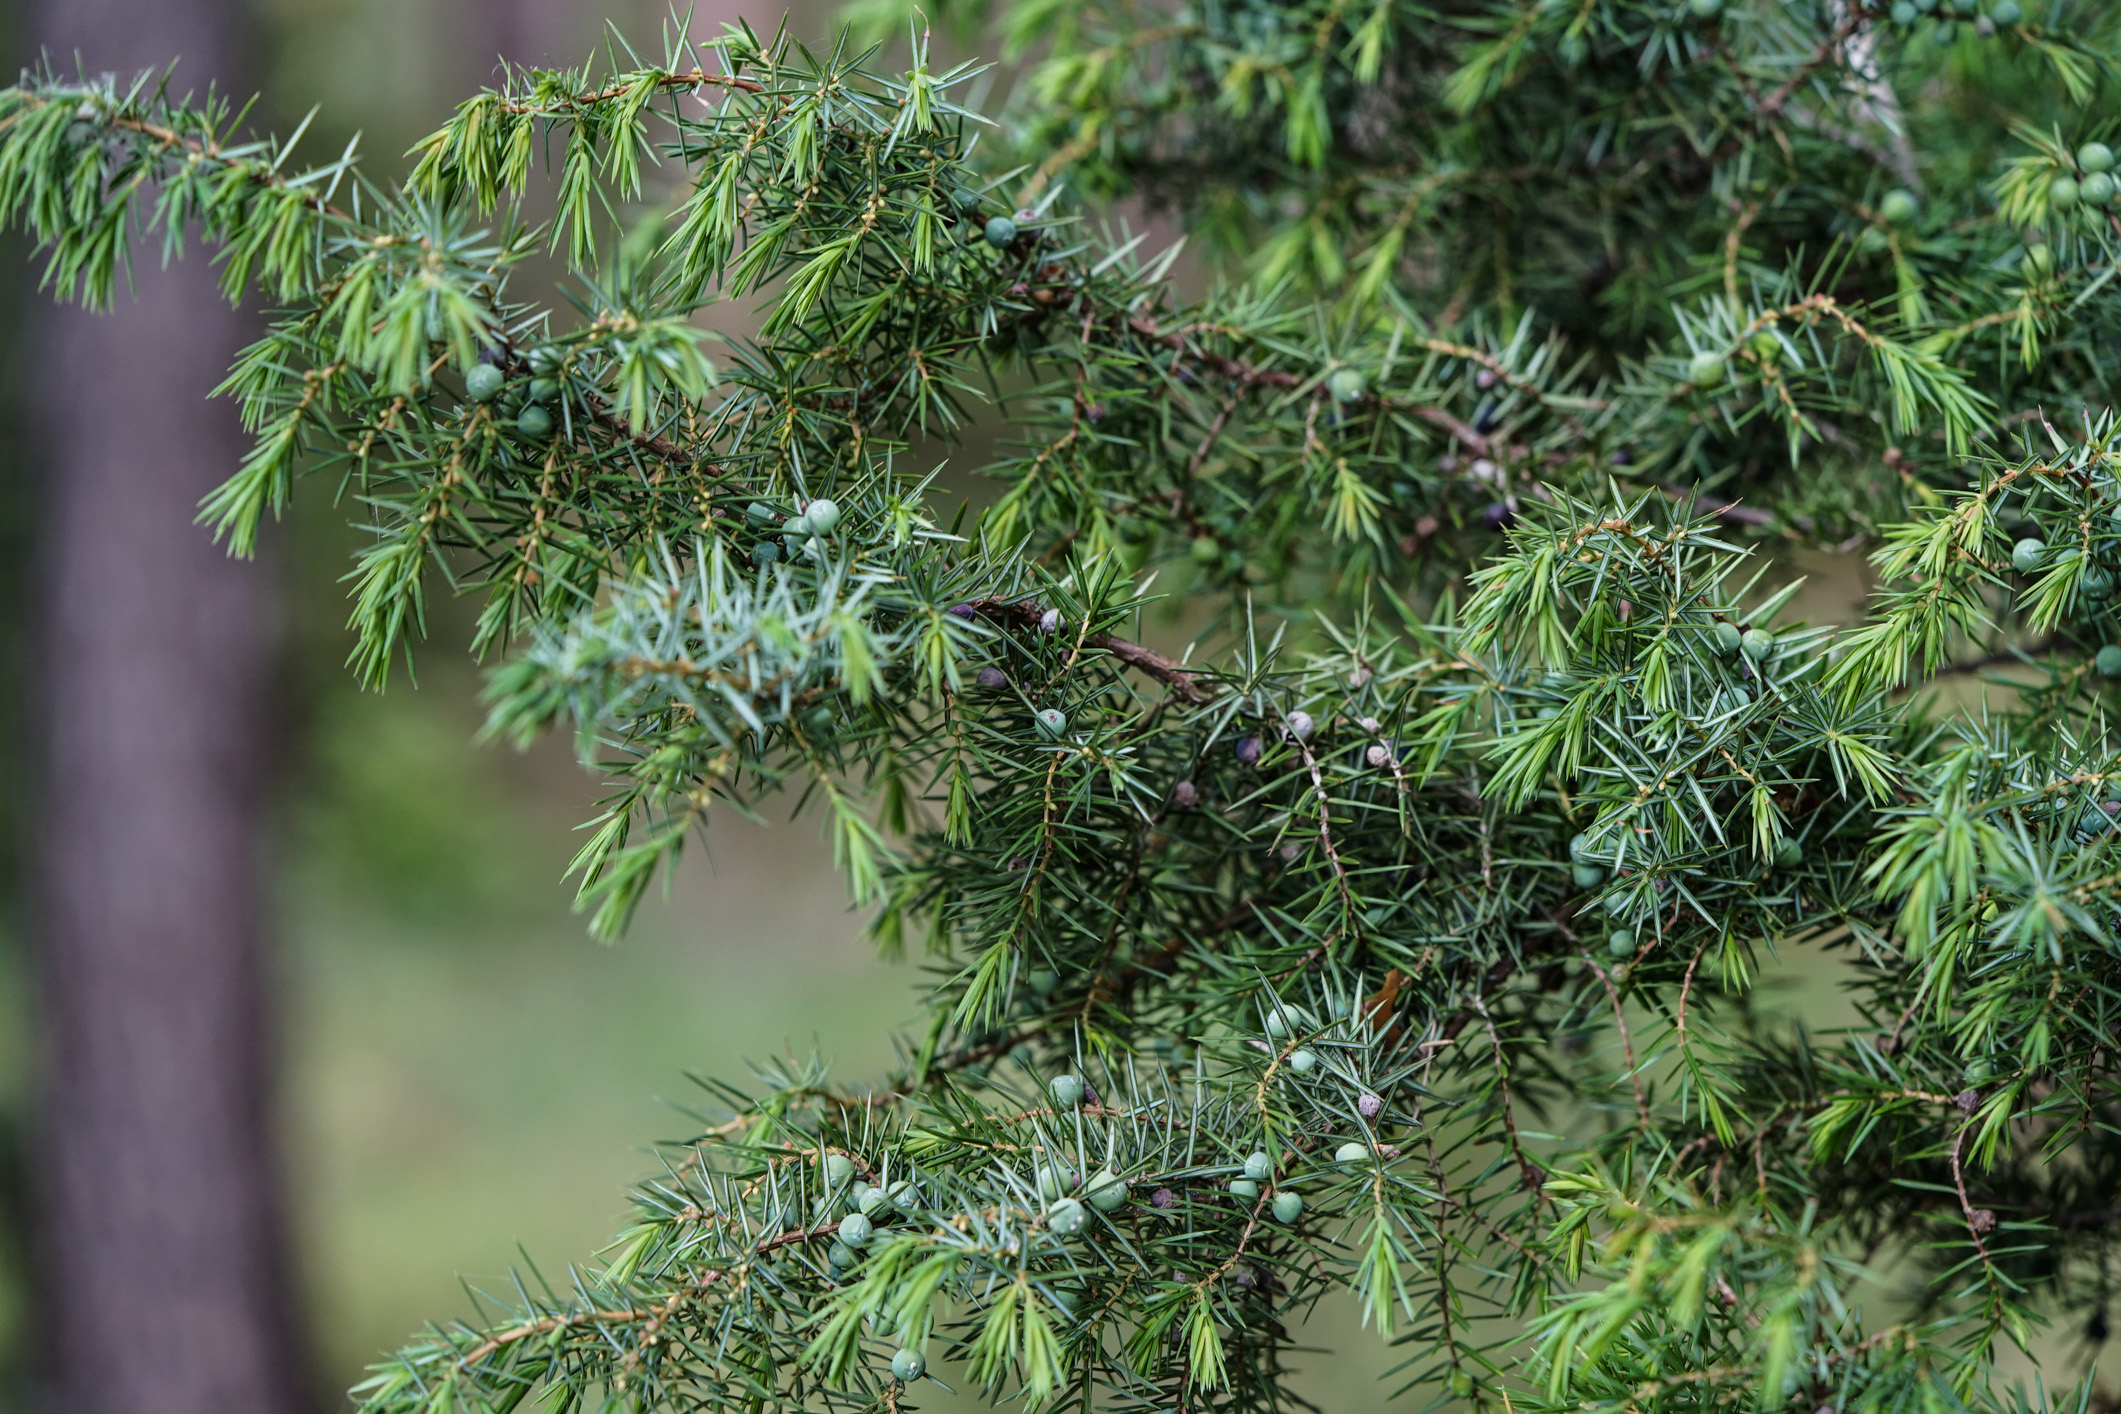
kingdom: Plantae
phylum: Tracheophyta
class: Pinopsida
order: Pinales
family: Cupressaceae
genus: Juniperus
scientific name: Juniperus communis
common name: Common juniper
